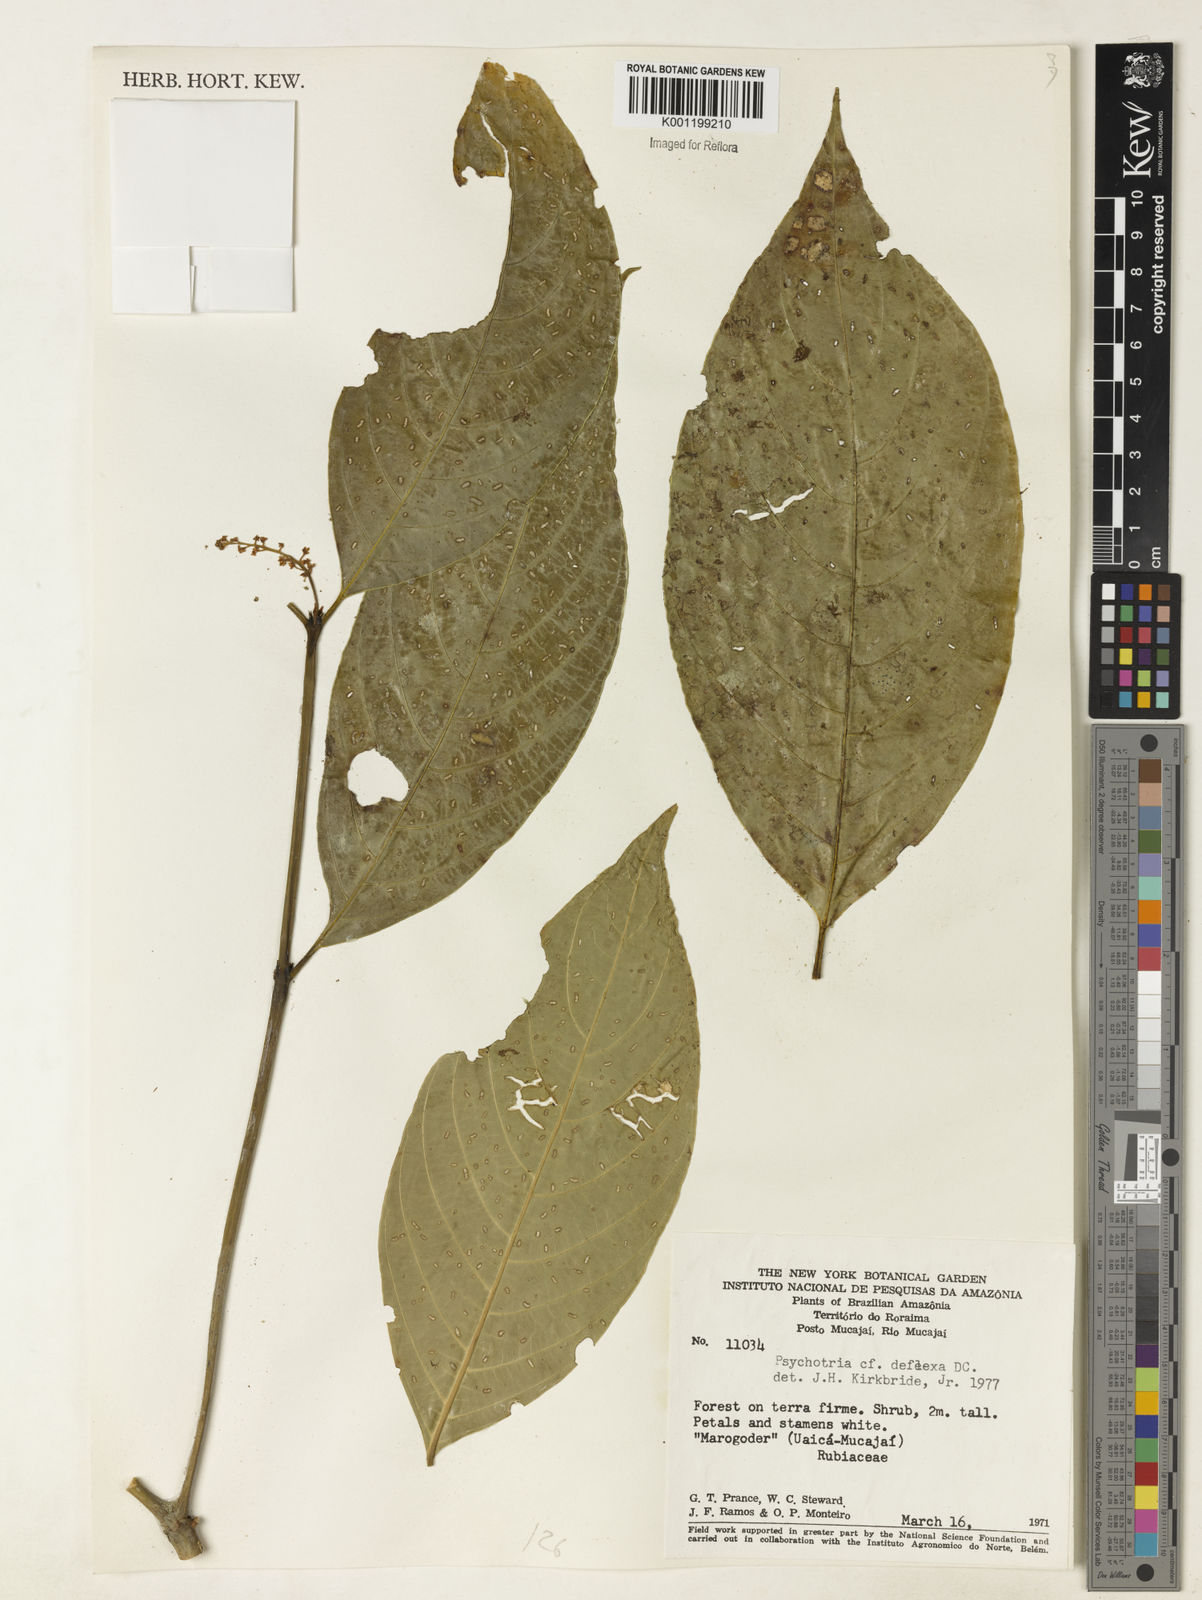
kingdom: Plantae
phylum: Tracheophyta
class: Magnoliopsida
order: Gentianales
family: Rubiaceae
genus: Palicourea
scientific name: Palicourea deflexa
